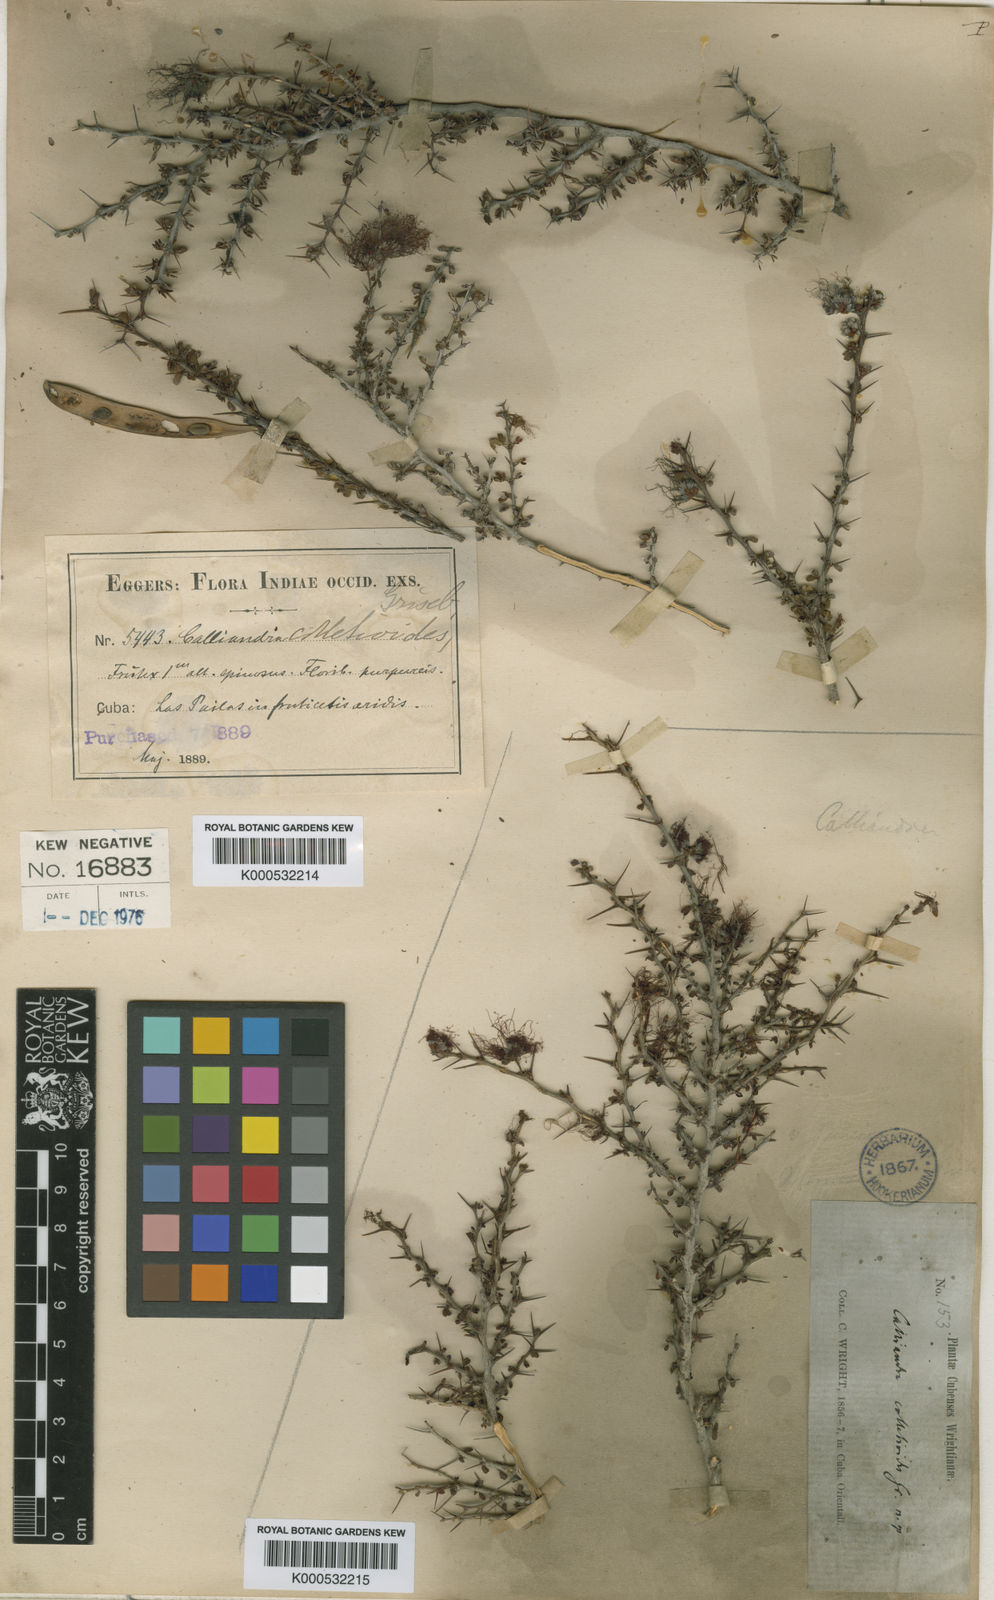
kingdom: Plantae
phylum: Tracheophyta
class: Magnoliopsida
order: Fabales
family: Fabaceae
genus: Calliandra
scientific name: Calliandra haematomma
